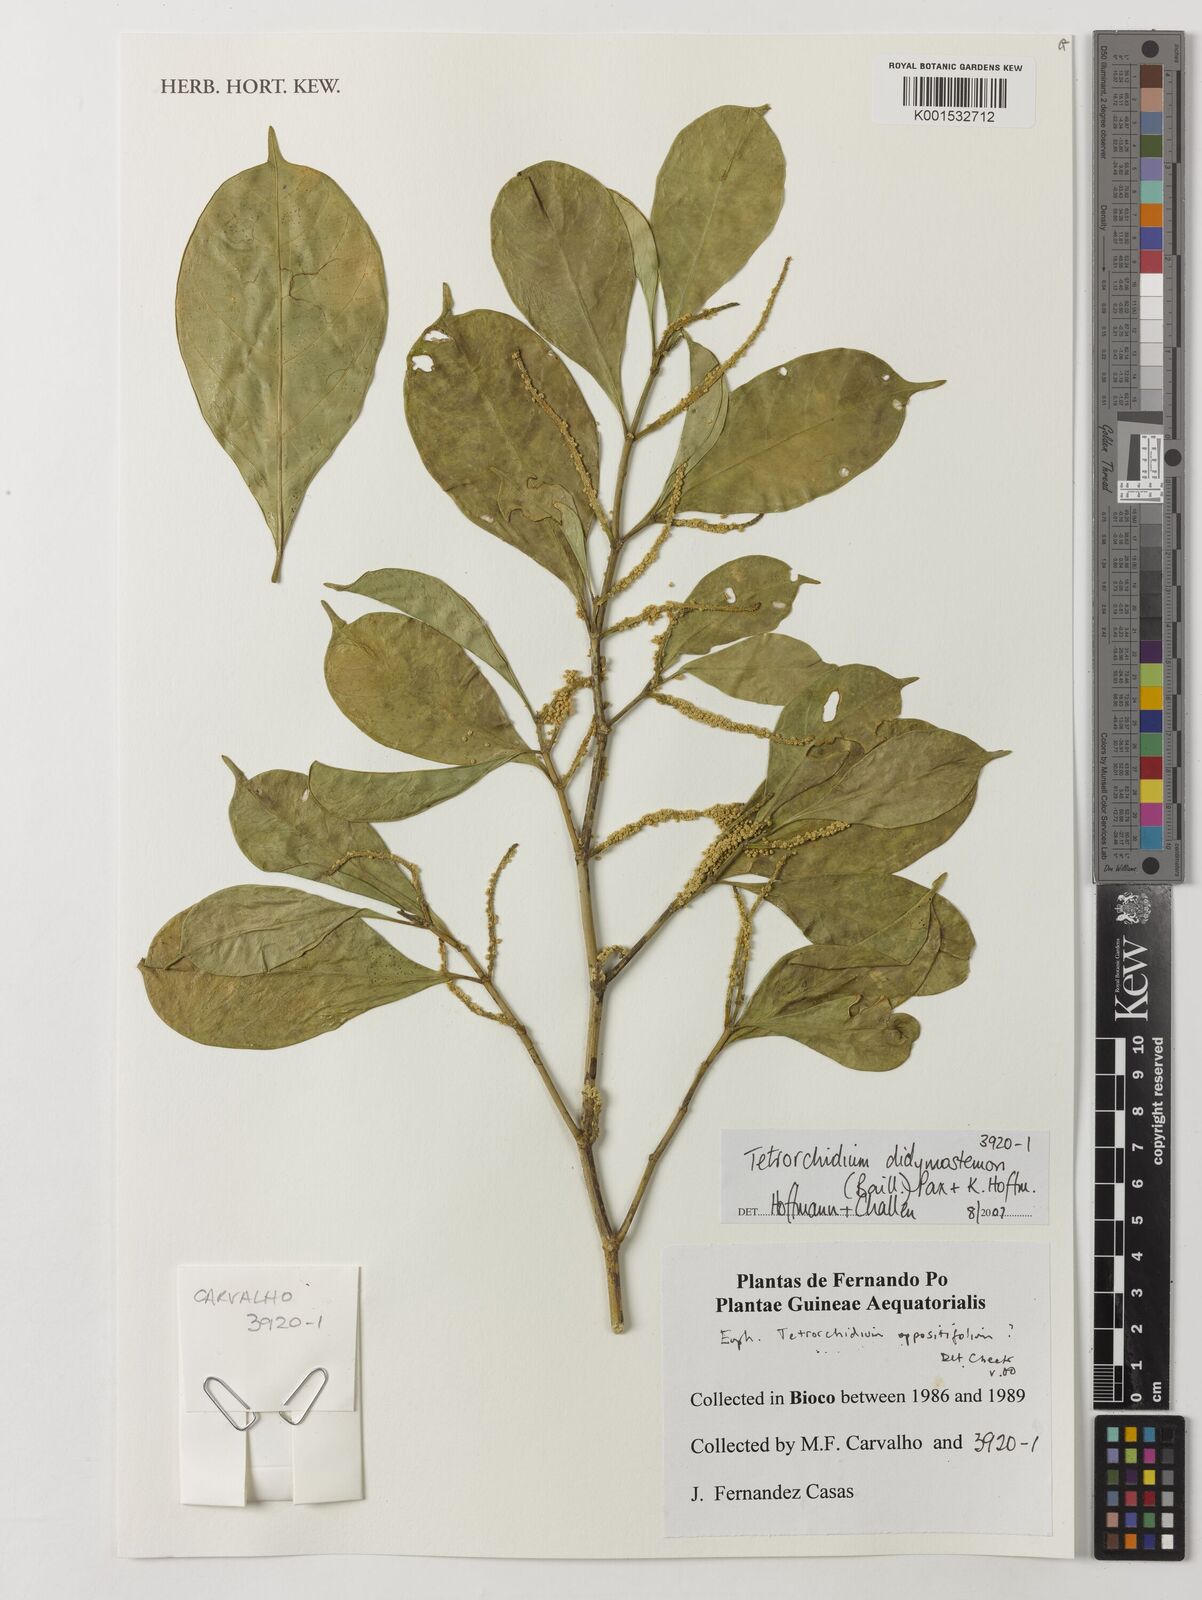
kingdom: Plantae
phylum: Tracheophyta
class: Magnoliopsida
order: Malpighiales
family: Euphorbiaceae
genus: Tetrorchidium
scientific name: Tetrorchidium didymostemon
